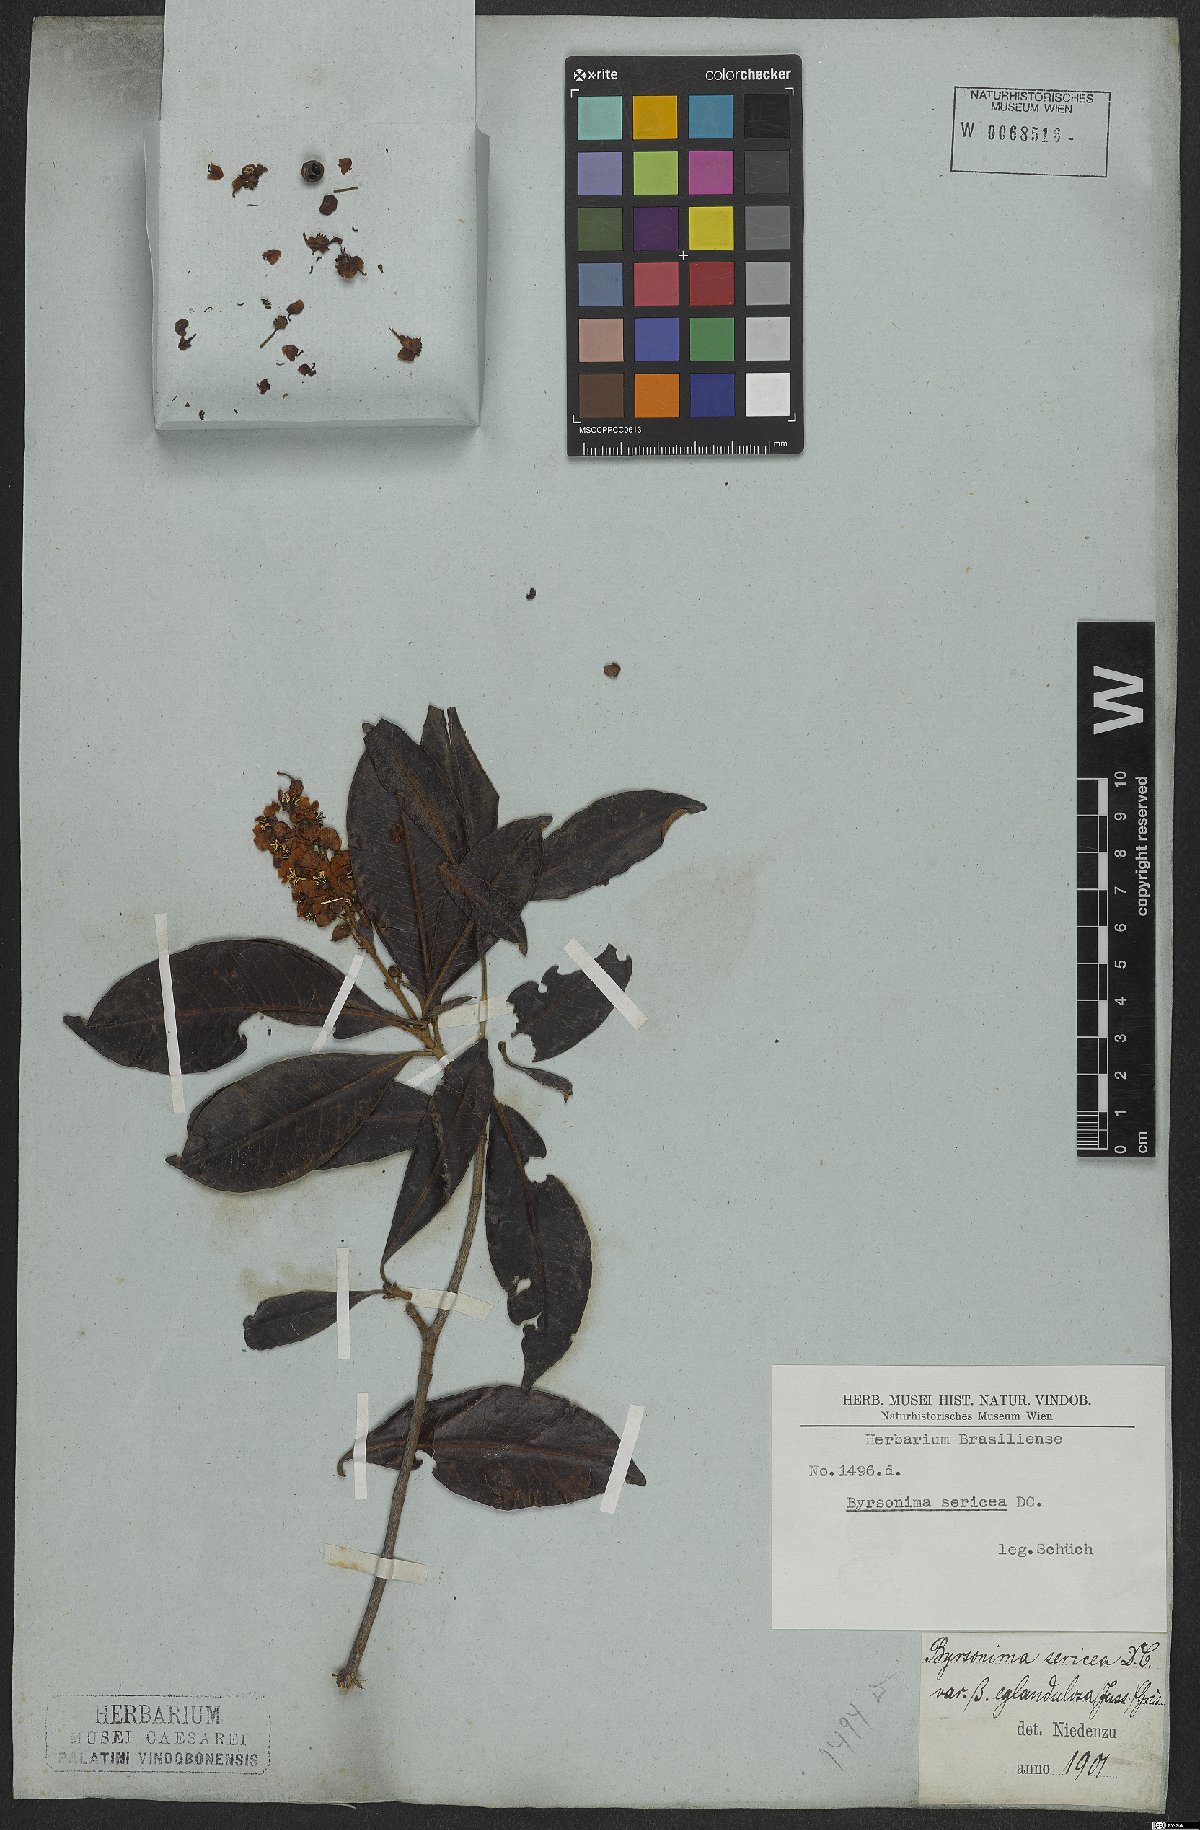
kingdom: Plantae
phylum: Tracheophyta
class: Magnoliopsida
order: Malpighiales
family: Malpighiaceae
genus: Byrsonima
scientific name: Byrsonima sericea
